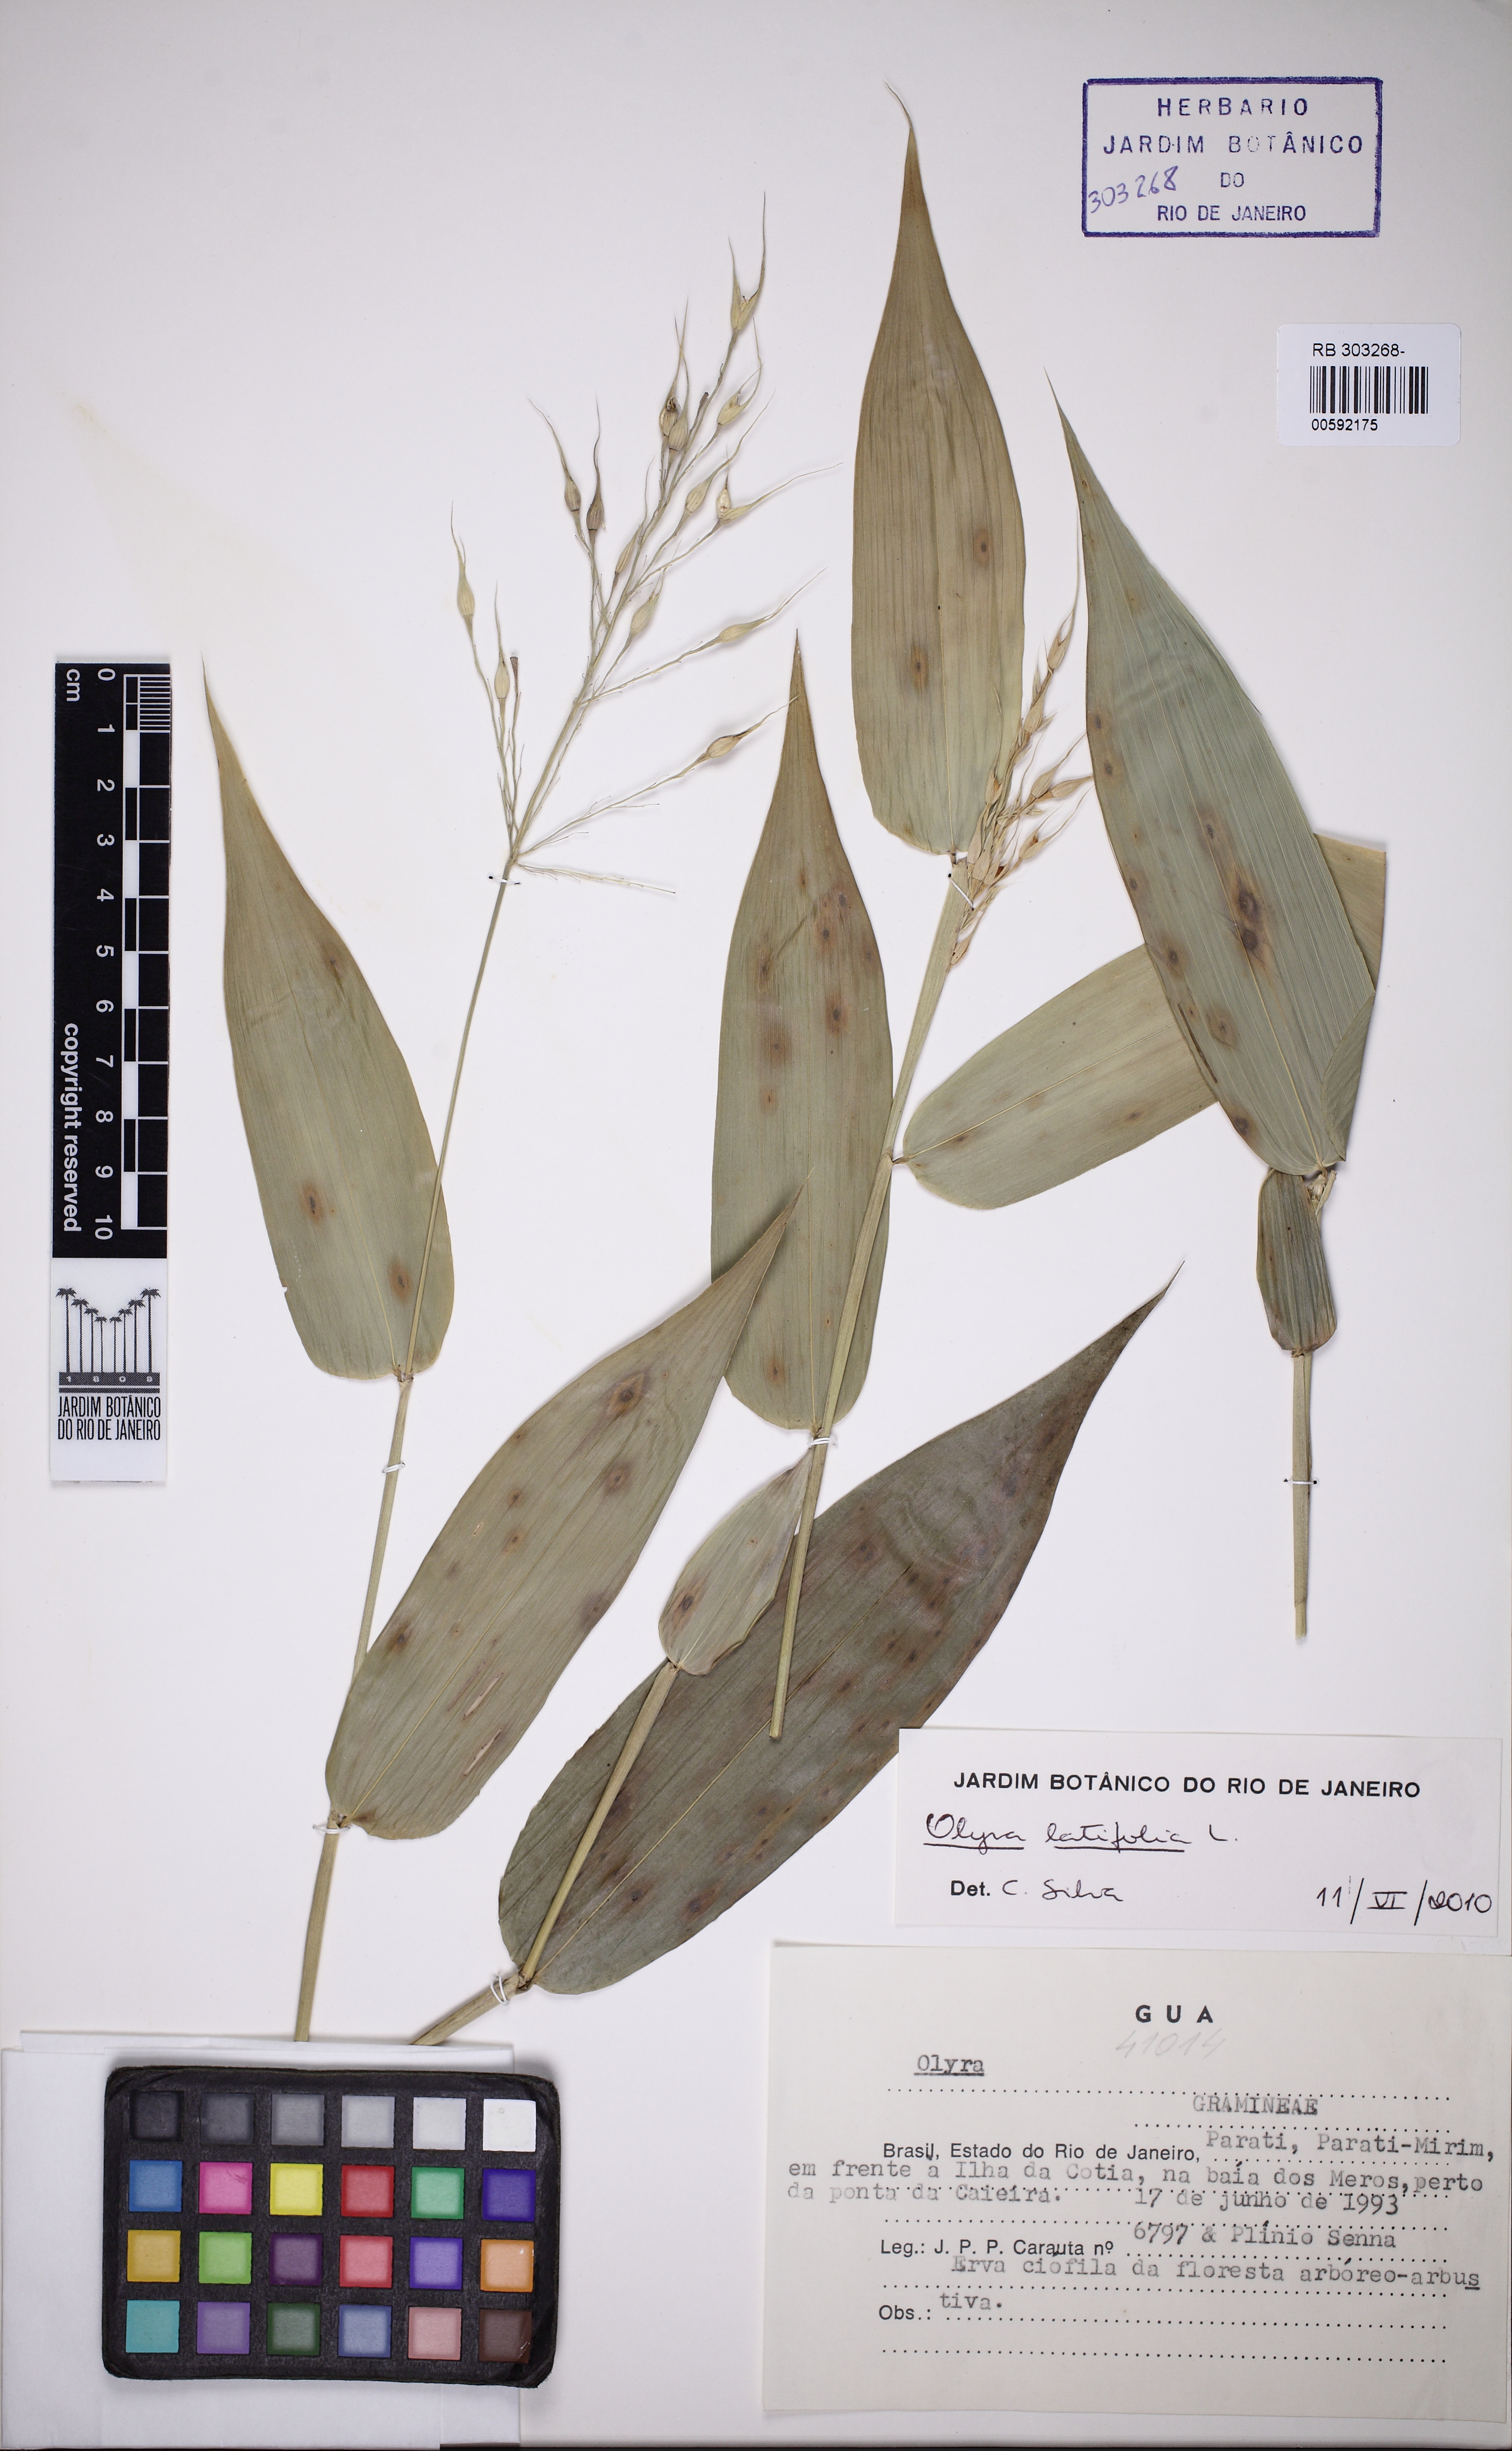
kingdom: Plantae
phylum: Tracheophyta
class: Liliopsida
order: Poales
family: Poaceae
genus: Olyra
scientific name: Olyra latifolia
